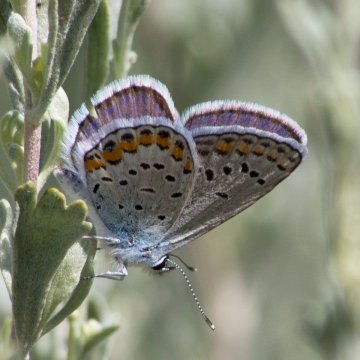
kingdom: Animalia
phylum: Arthropoda
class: Insecta
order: Lepidoptera
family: Lycaenidae
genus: Lycaeides
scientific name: Lycaeides melissa
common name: Melissa Blue
